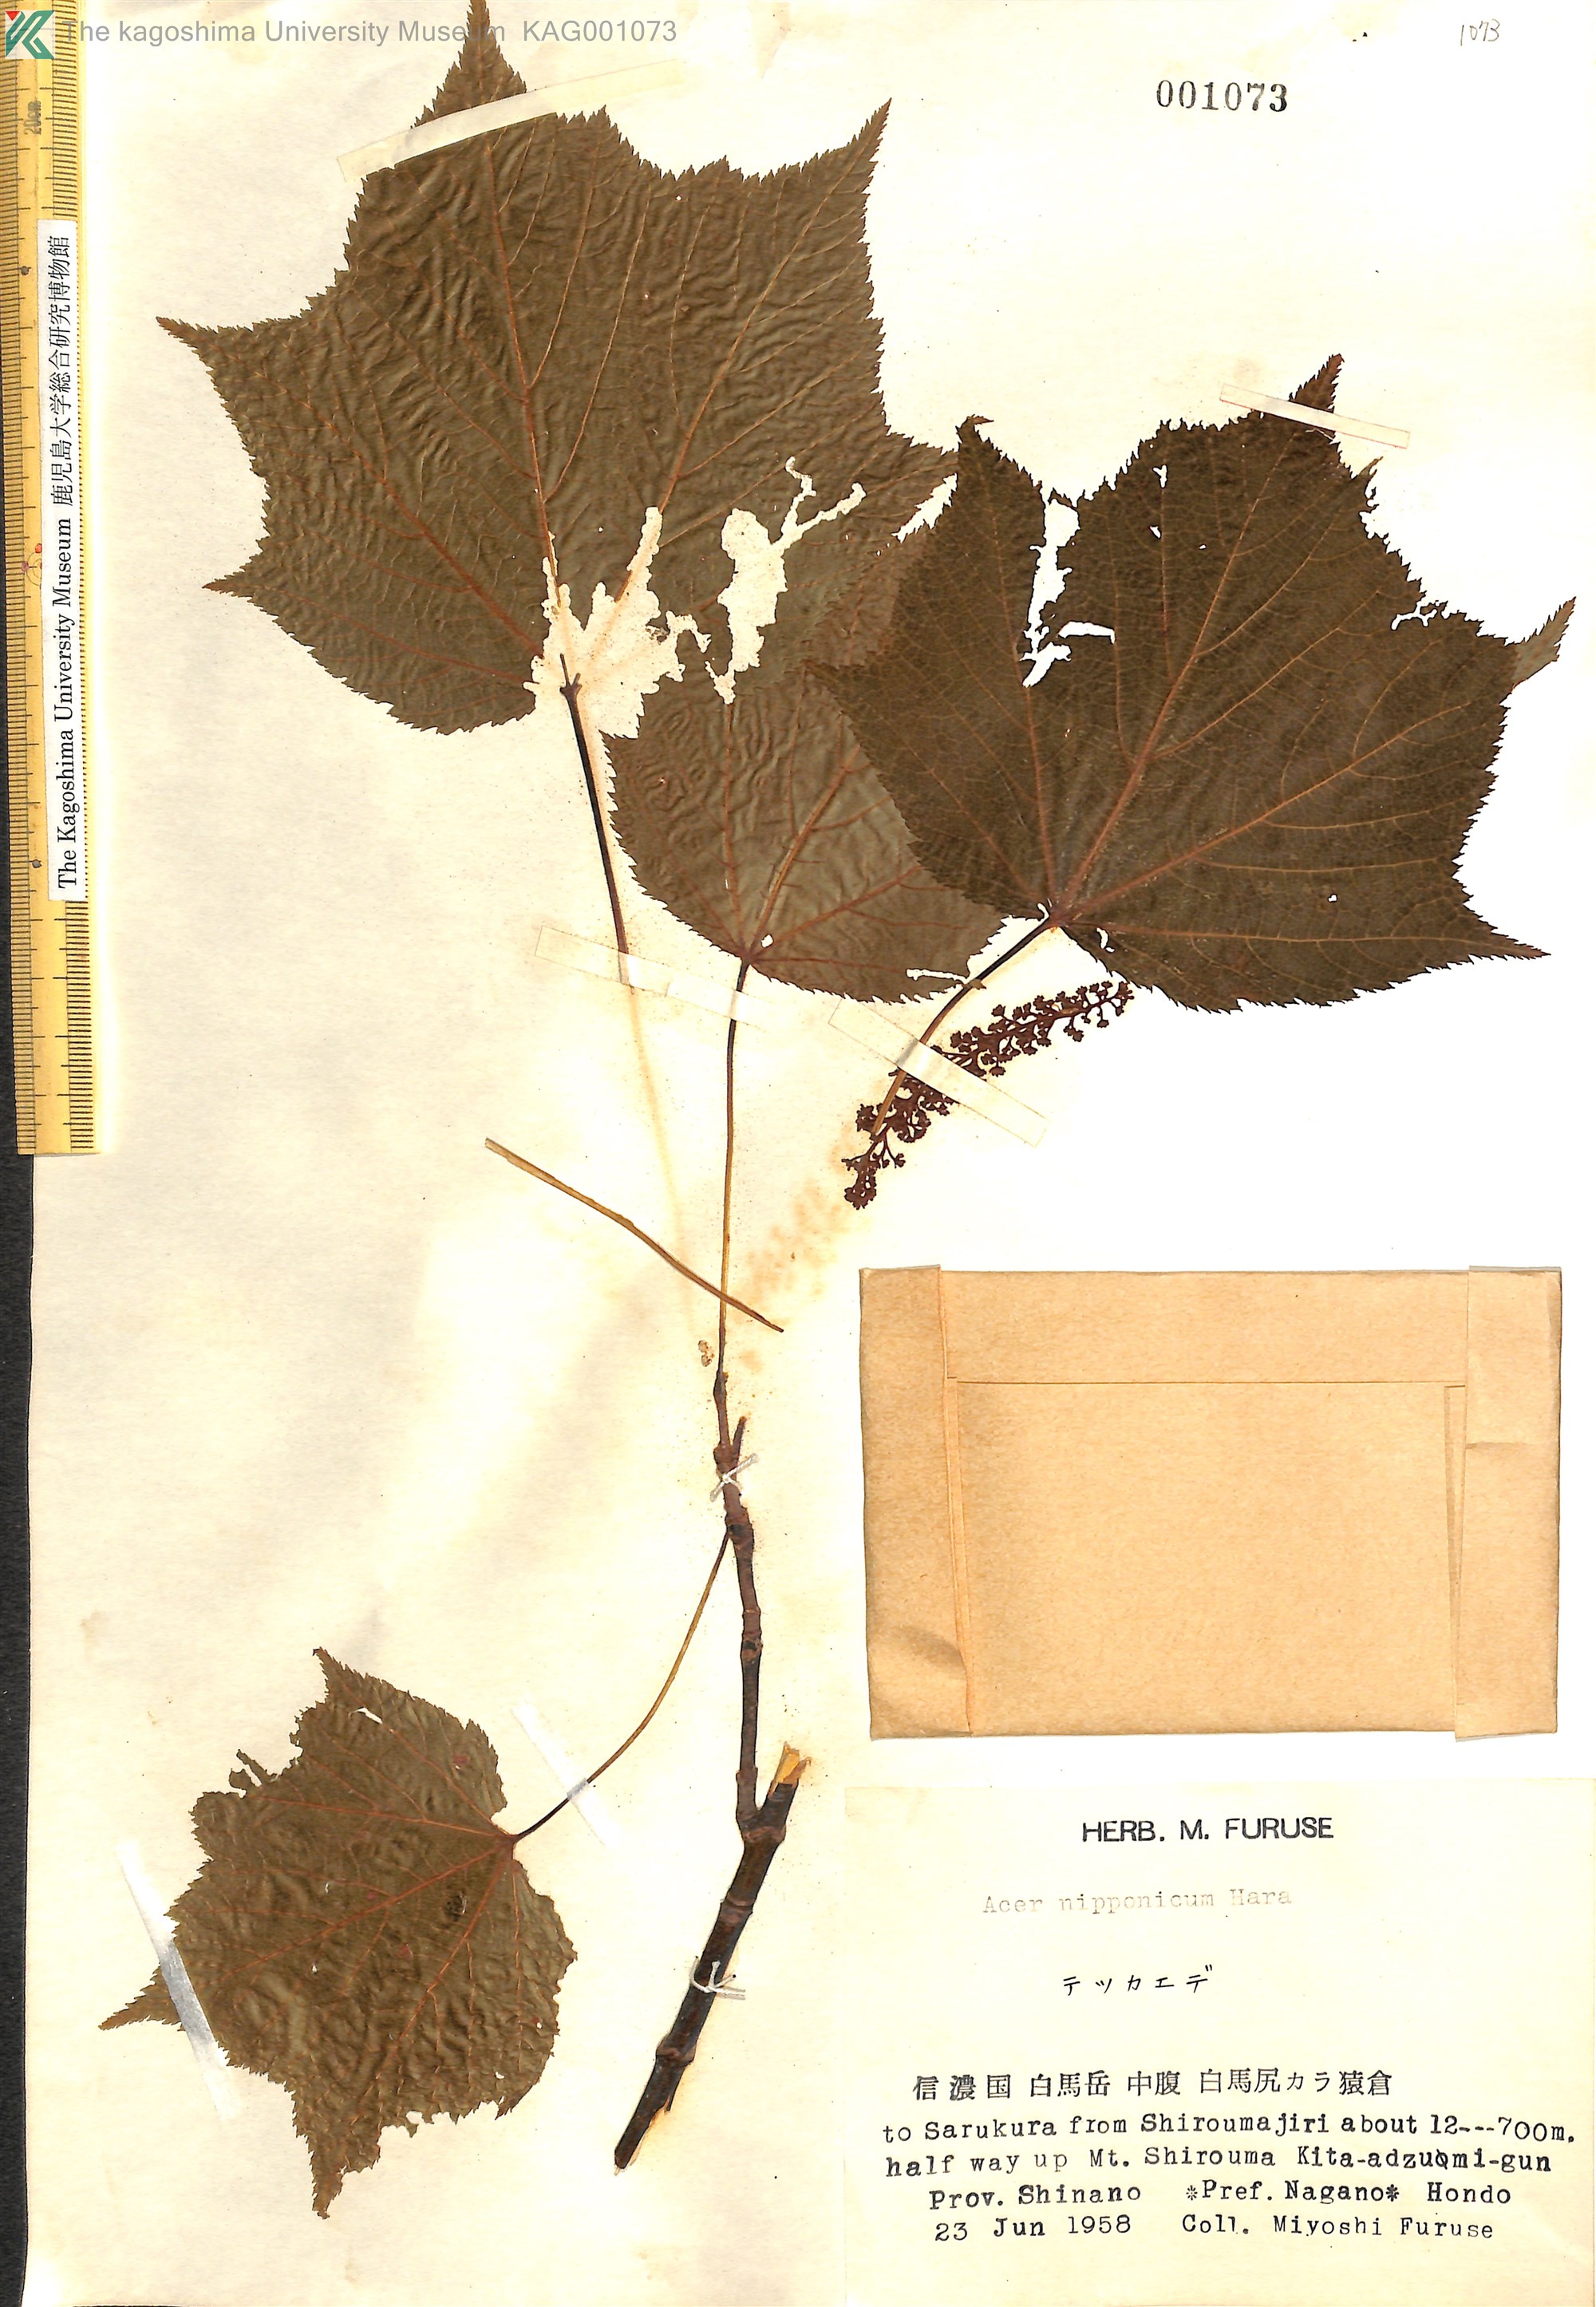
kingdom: Plantae
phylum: Tracheophyta
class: Magnoliopsida
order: Sapindales
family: Sapindaceae
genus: Acer
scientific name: Acer nipponicum
